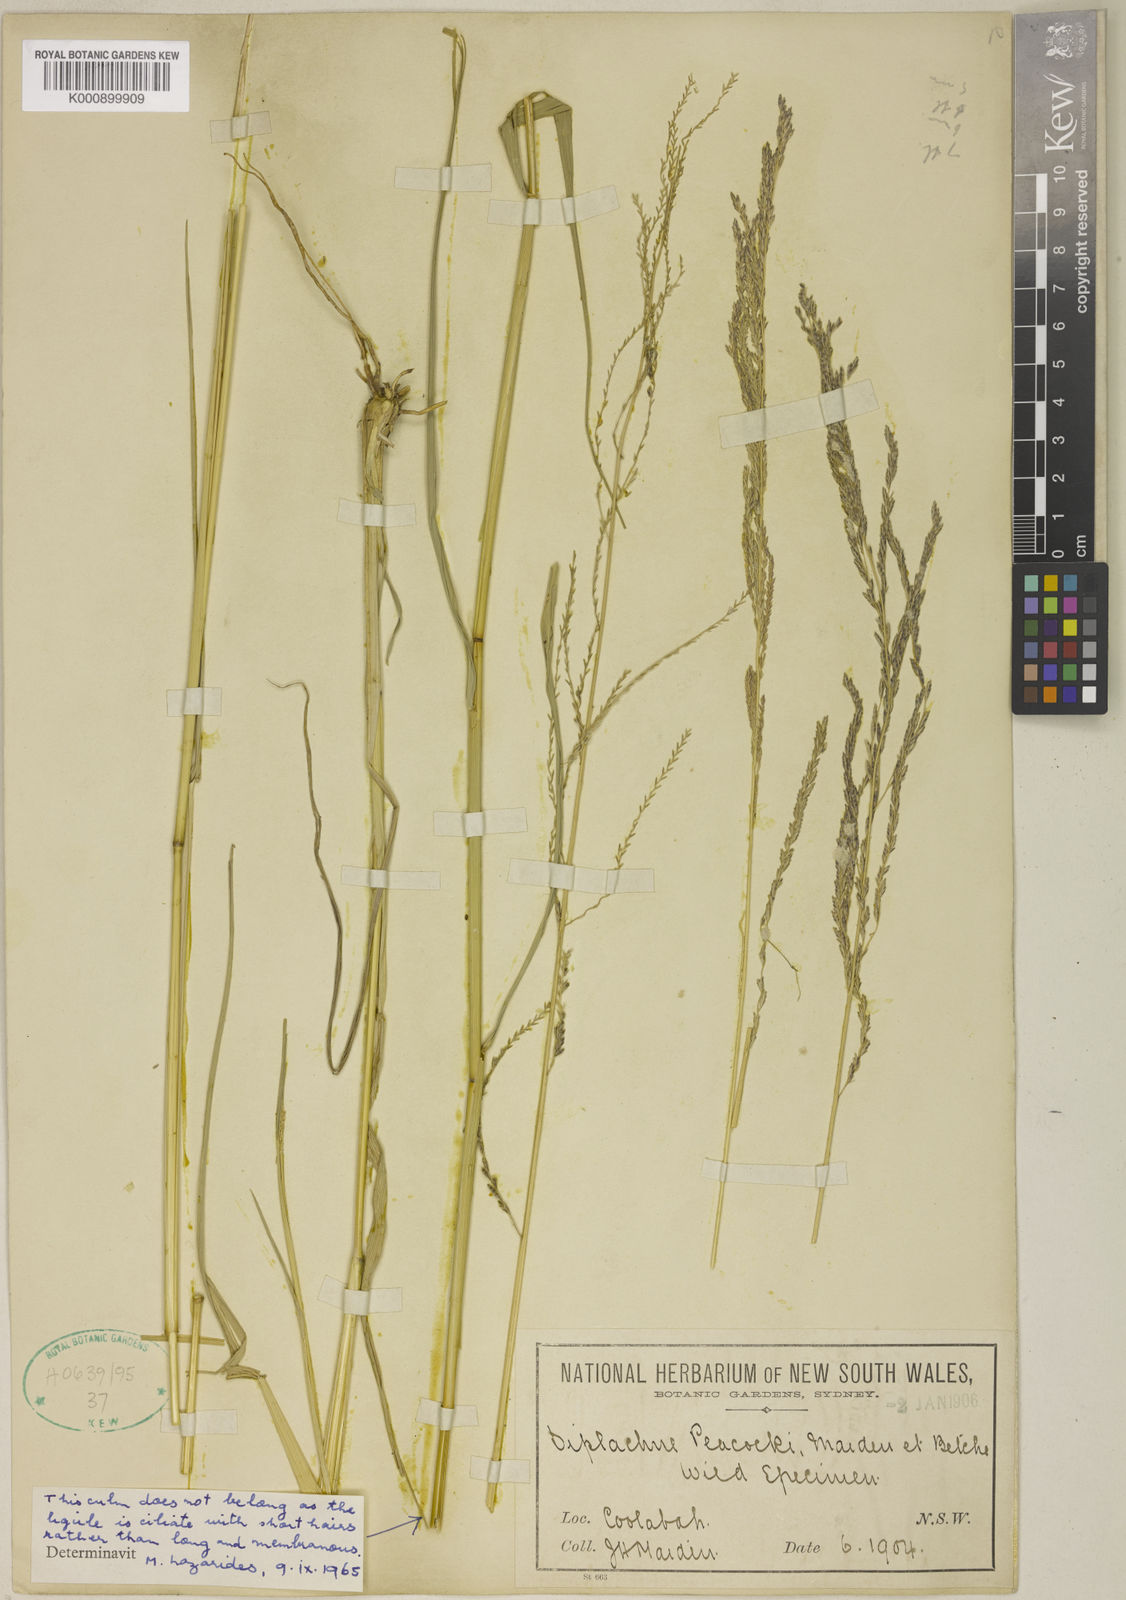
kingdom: Plantae
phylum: Tracheophyta
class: Liliopsida
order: Poales
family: Poaceae
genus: Leptochloa
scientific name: Leptochloa decipiens
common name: Australian sprangletop
